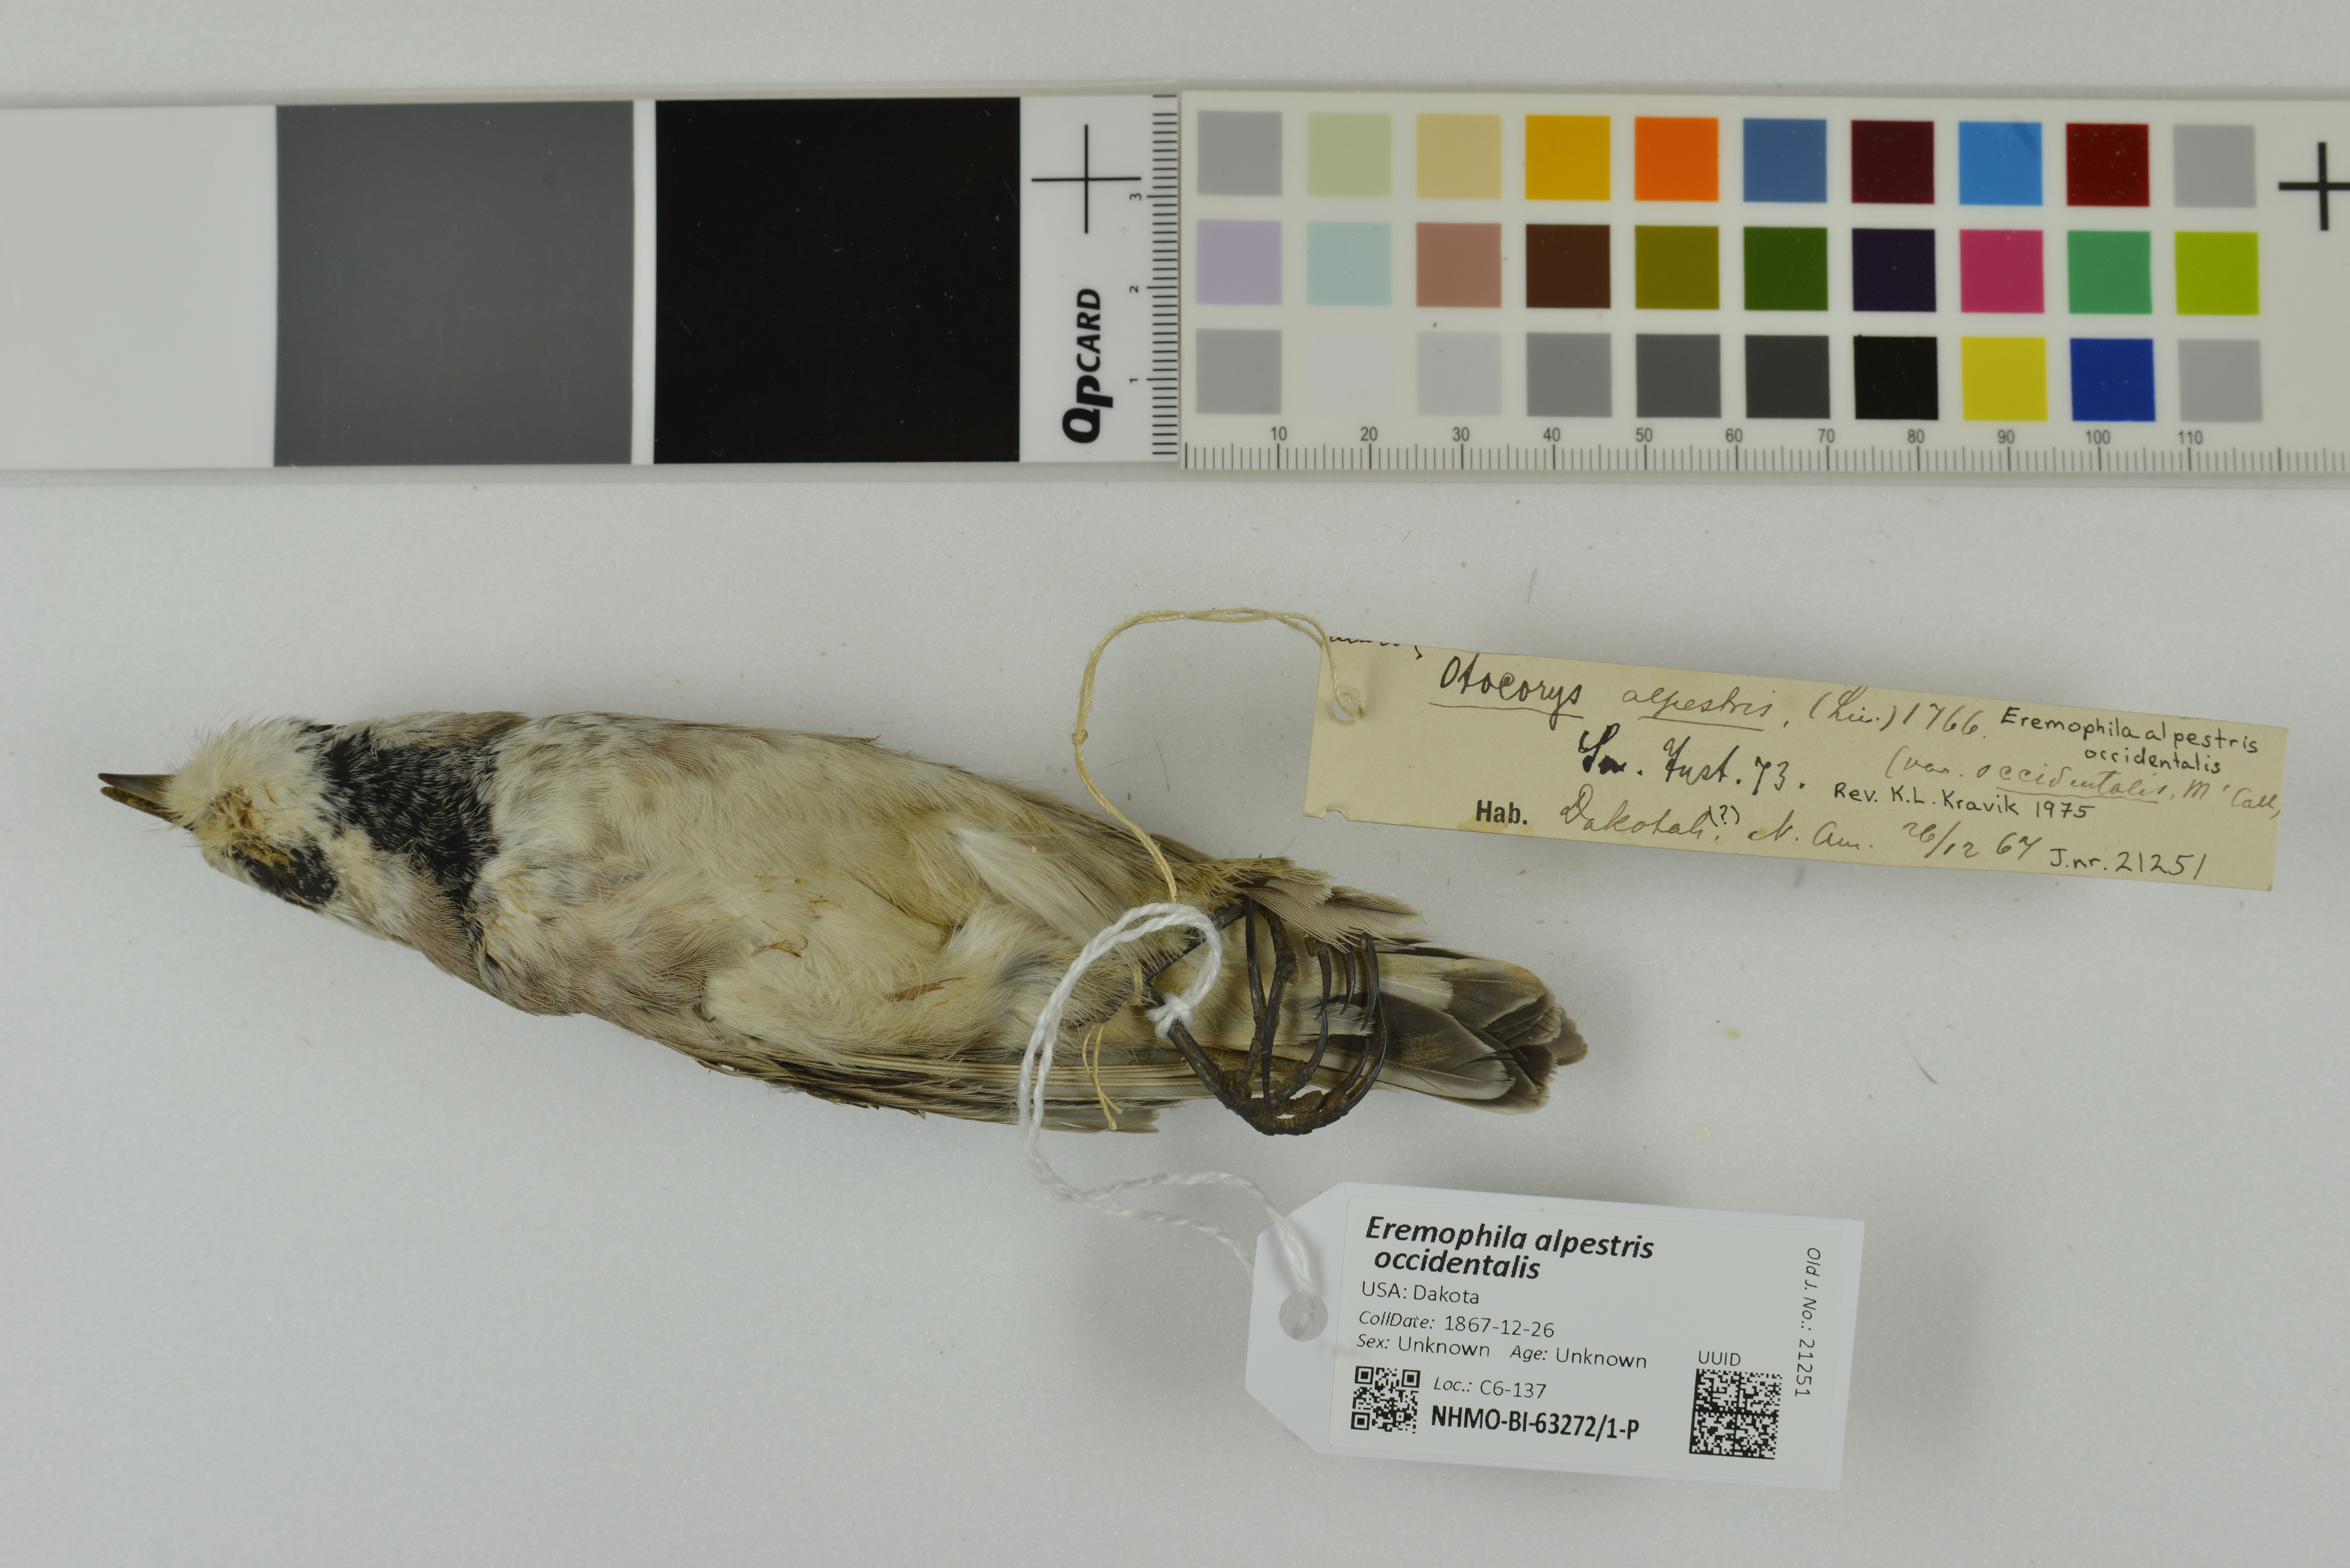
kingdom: Animalia
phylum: Chordata
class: Aves
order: Passeriformes
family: Alaudidae
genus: Eremophila
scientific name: Eremophila alpestris
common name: Horned lark
